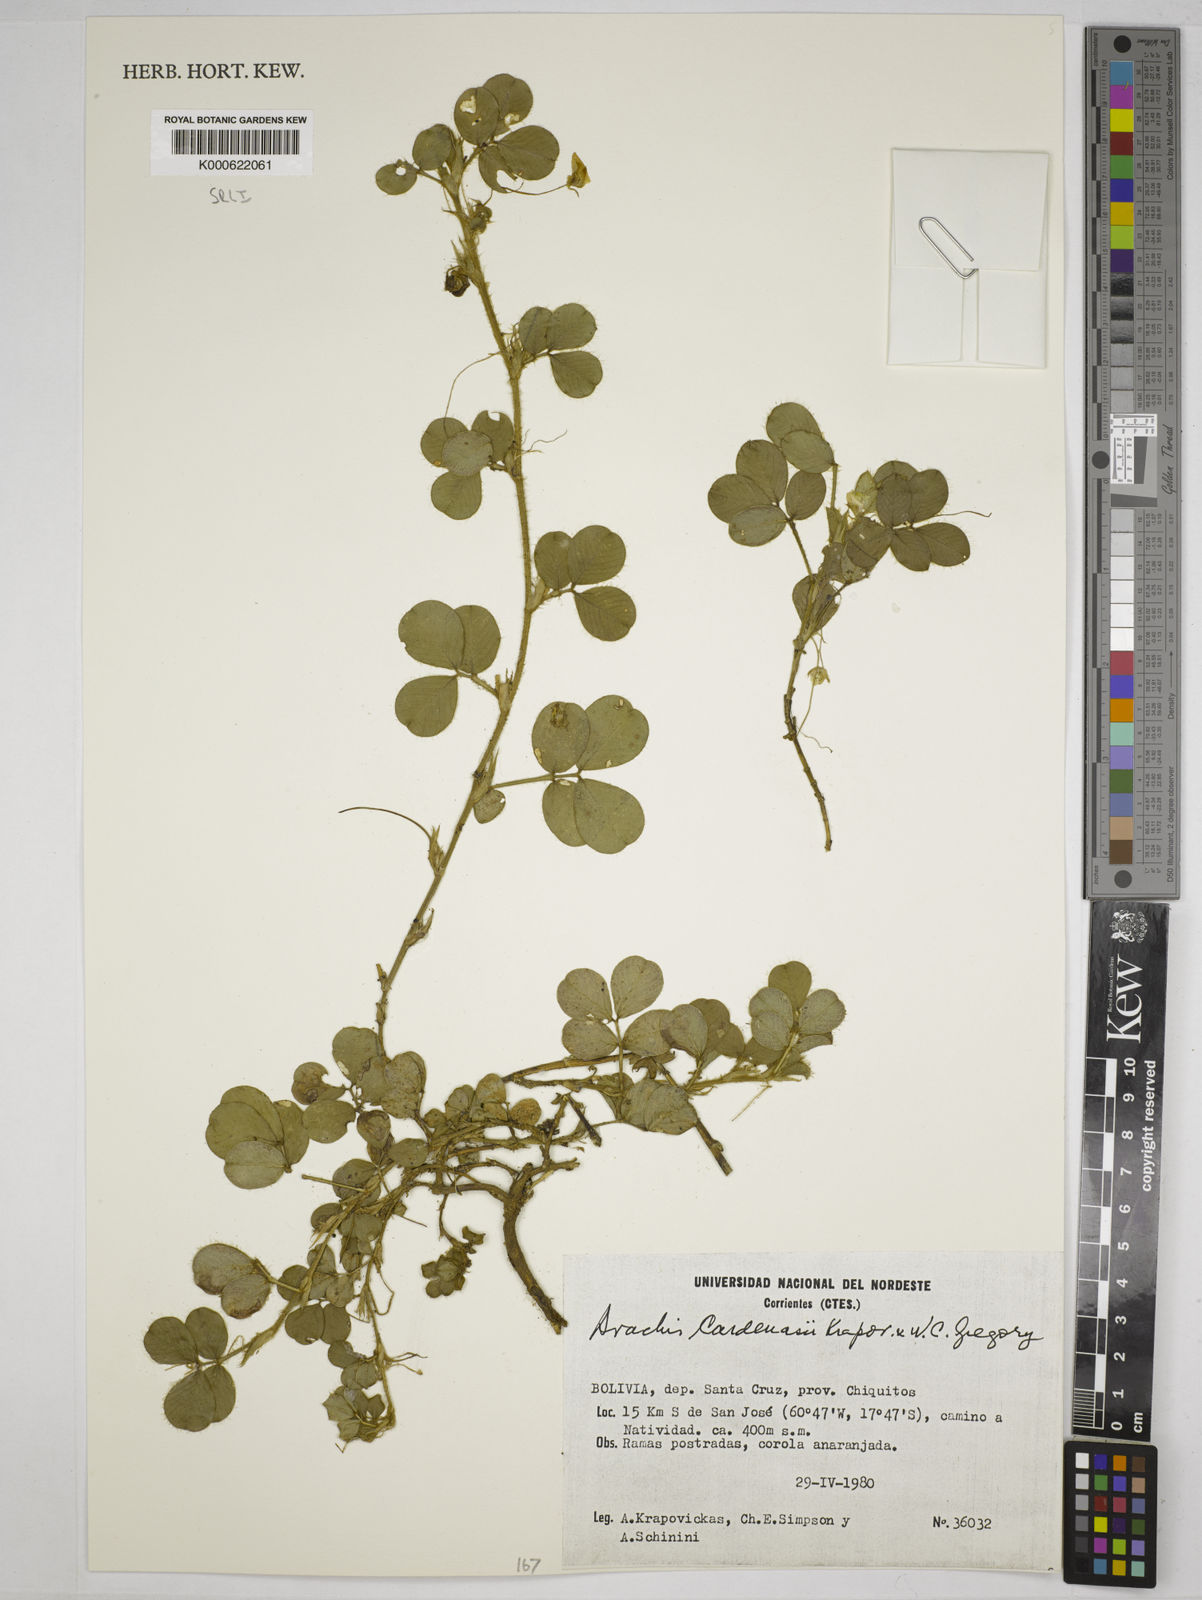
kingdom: Plantae
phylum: Tracheophyta
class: Magnoliopsida
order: Fabales
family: Fabaceae
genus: Arachis
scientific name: Arachis cardenasii
